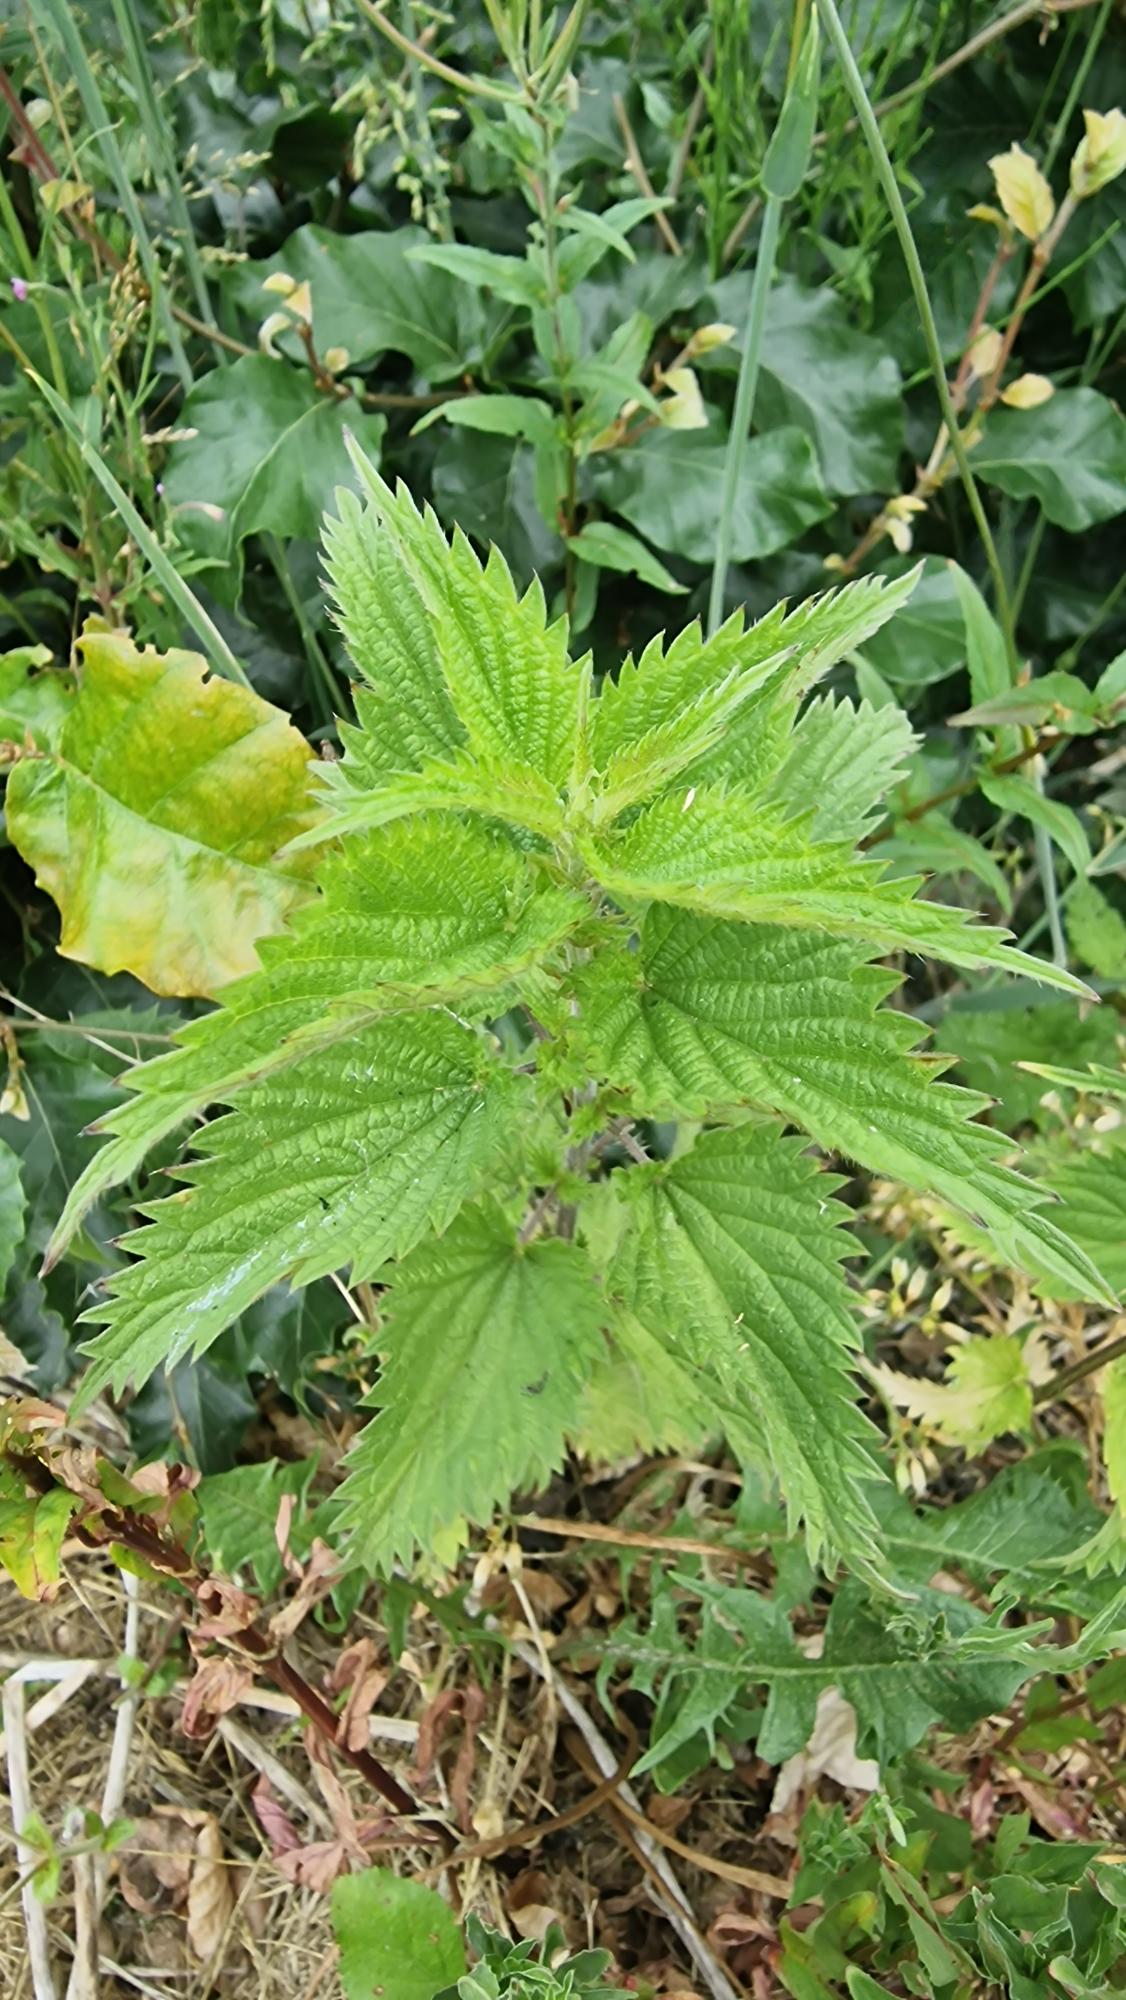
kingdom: Plantae
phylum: Tracheophyta
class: Magnoliopsida
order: Rosales
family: Urticaceae
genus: Urtica
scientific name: Urtica dioica
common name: Stor nælde
